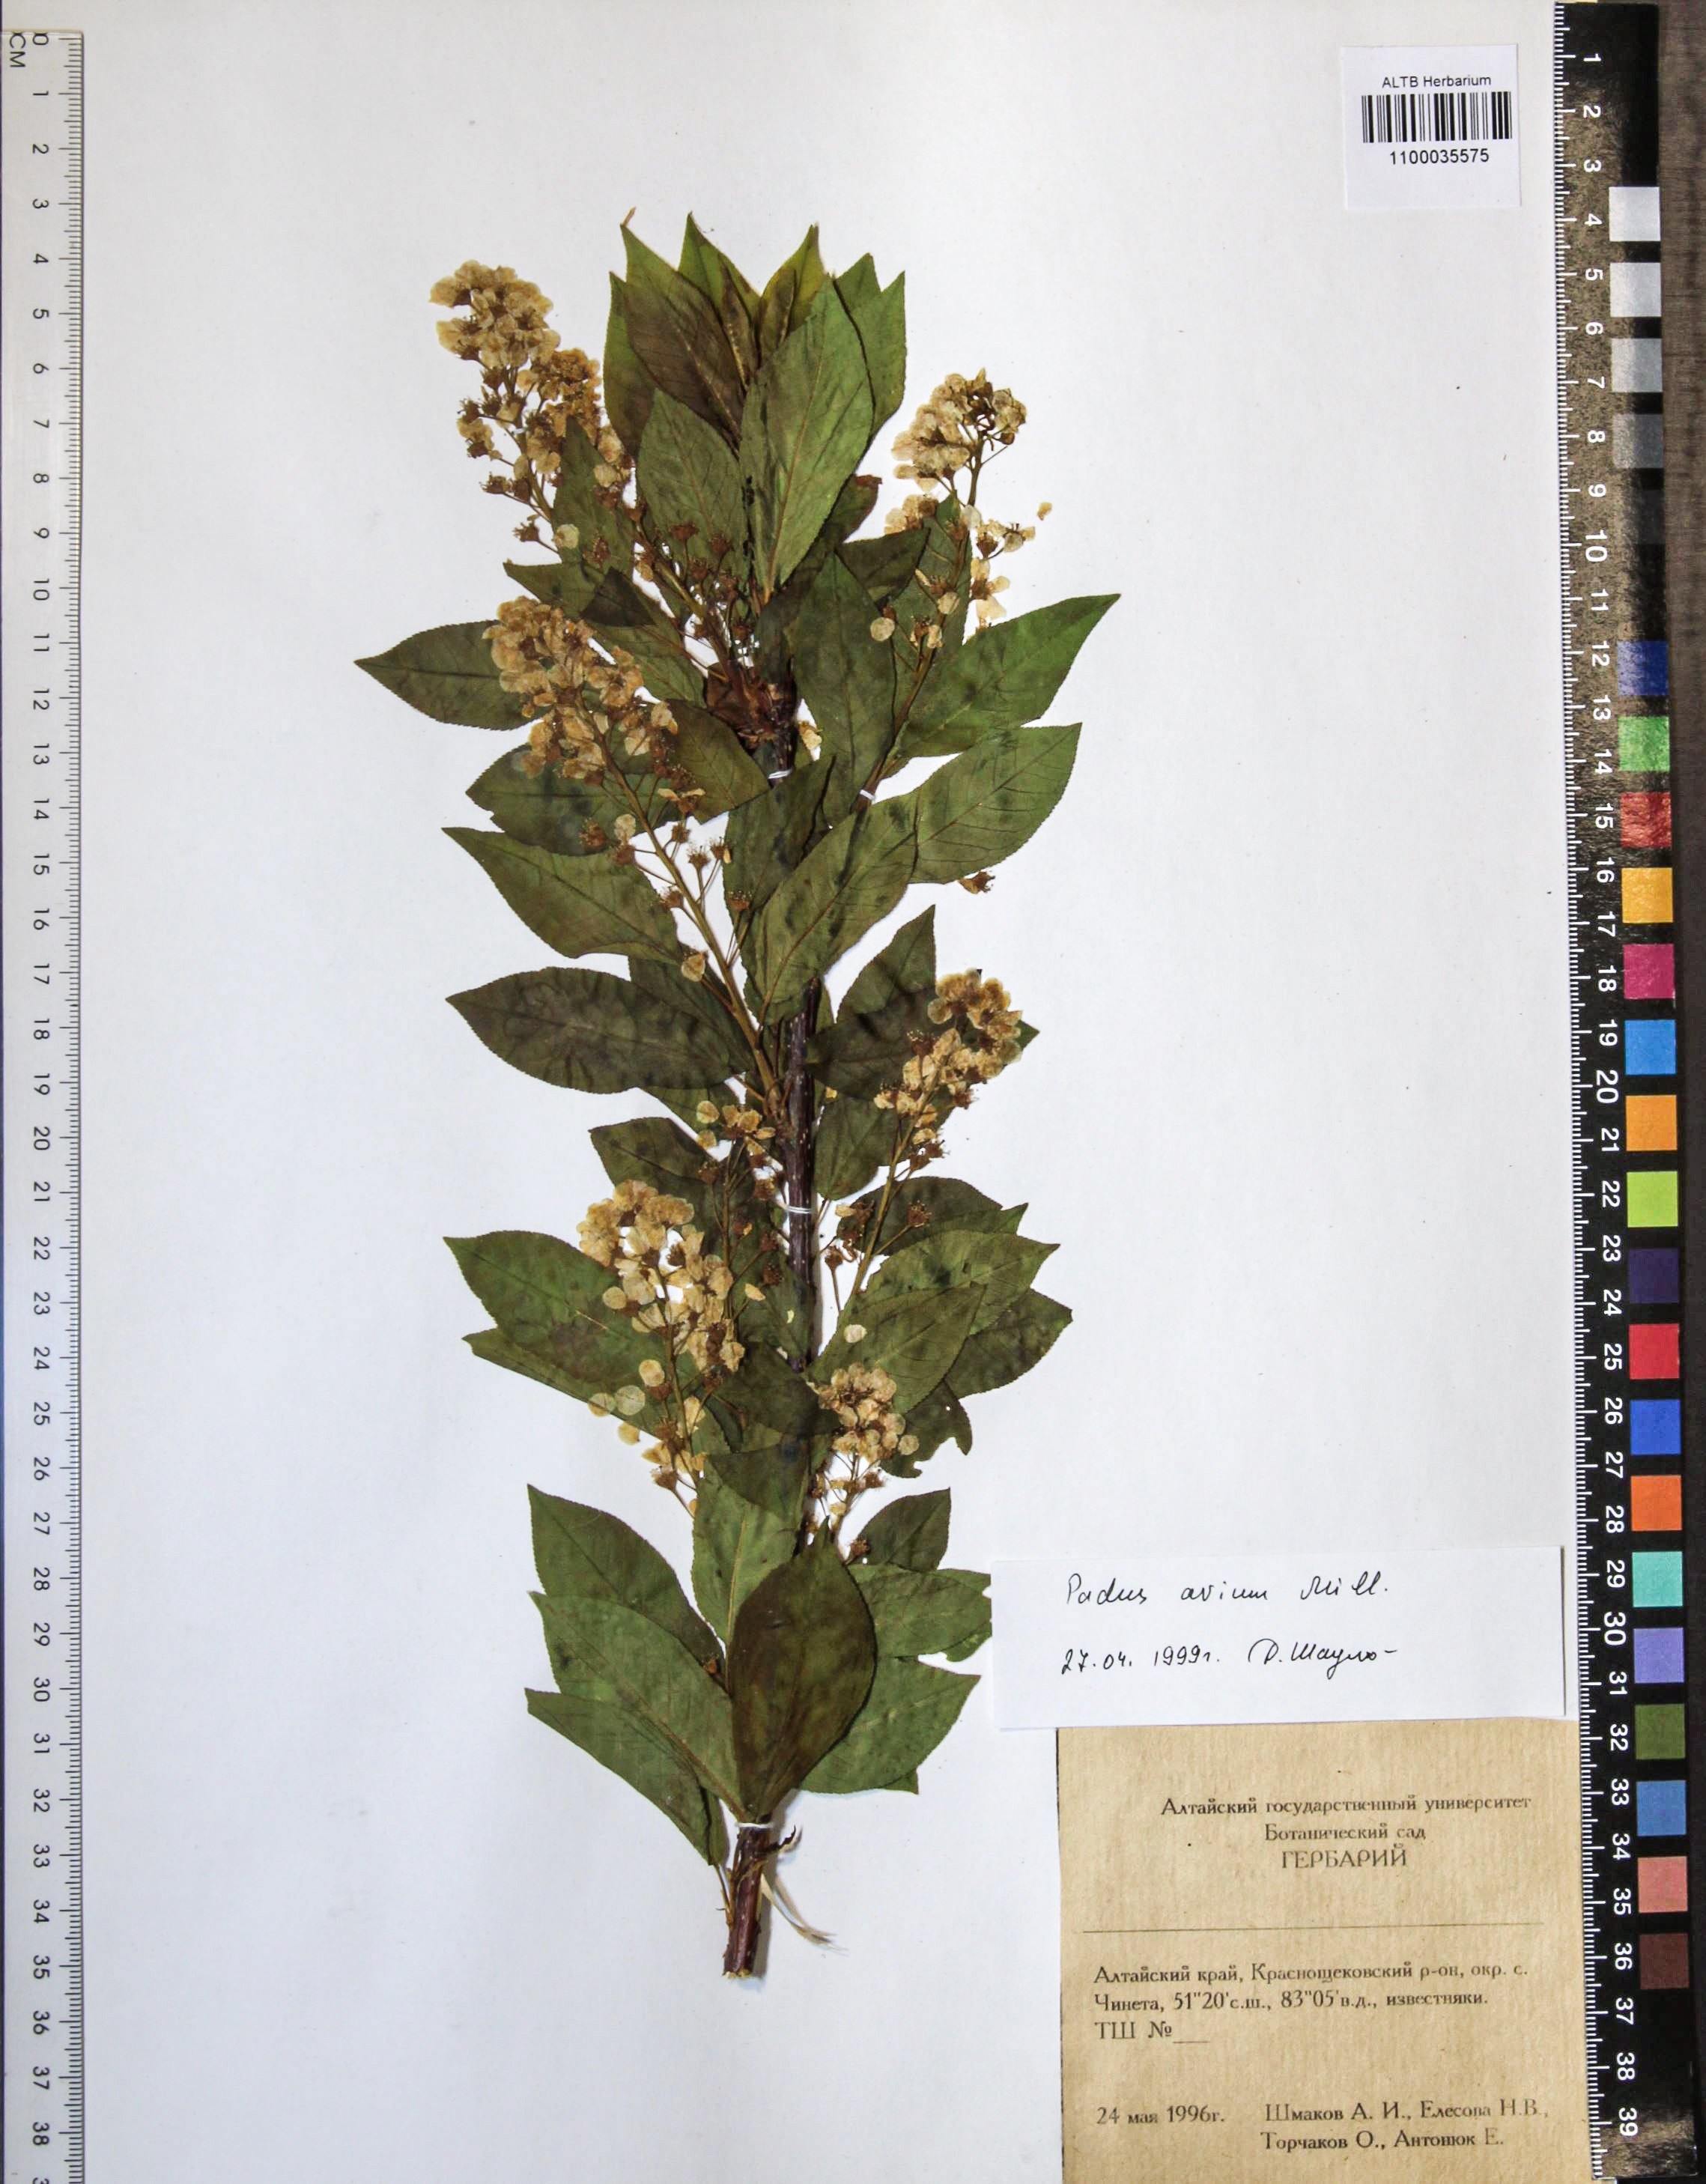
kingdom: Plantae
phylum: Tracheophyta
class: Magnoliopsida
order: Rosales
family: Rosaceae
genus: Prunus
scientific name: Prunus padus
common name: Bird cherry
